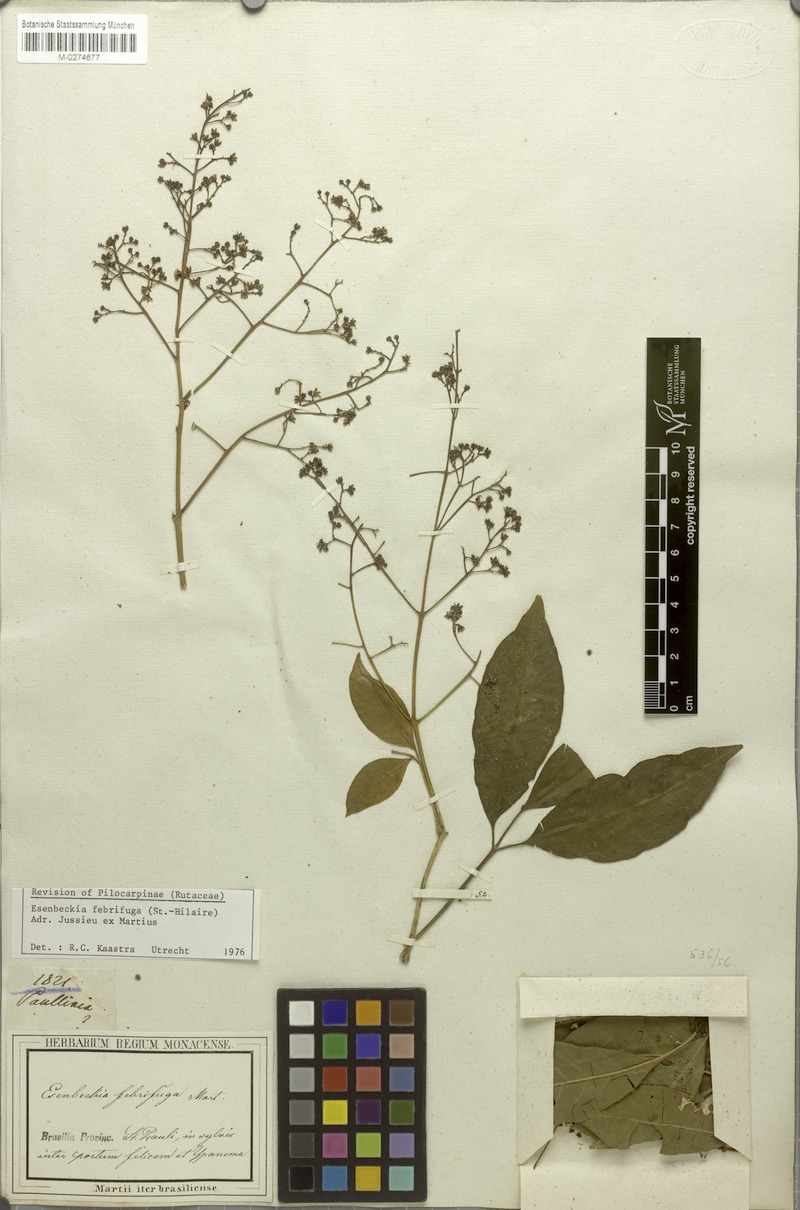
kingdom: Plantae
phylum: Tracheophyta
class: Magnoliopsida
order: Sapindales
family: Rutaceae
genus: Esenbeckia
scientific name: Esenbeckia febrifuga
